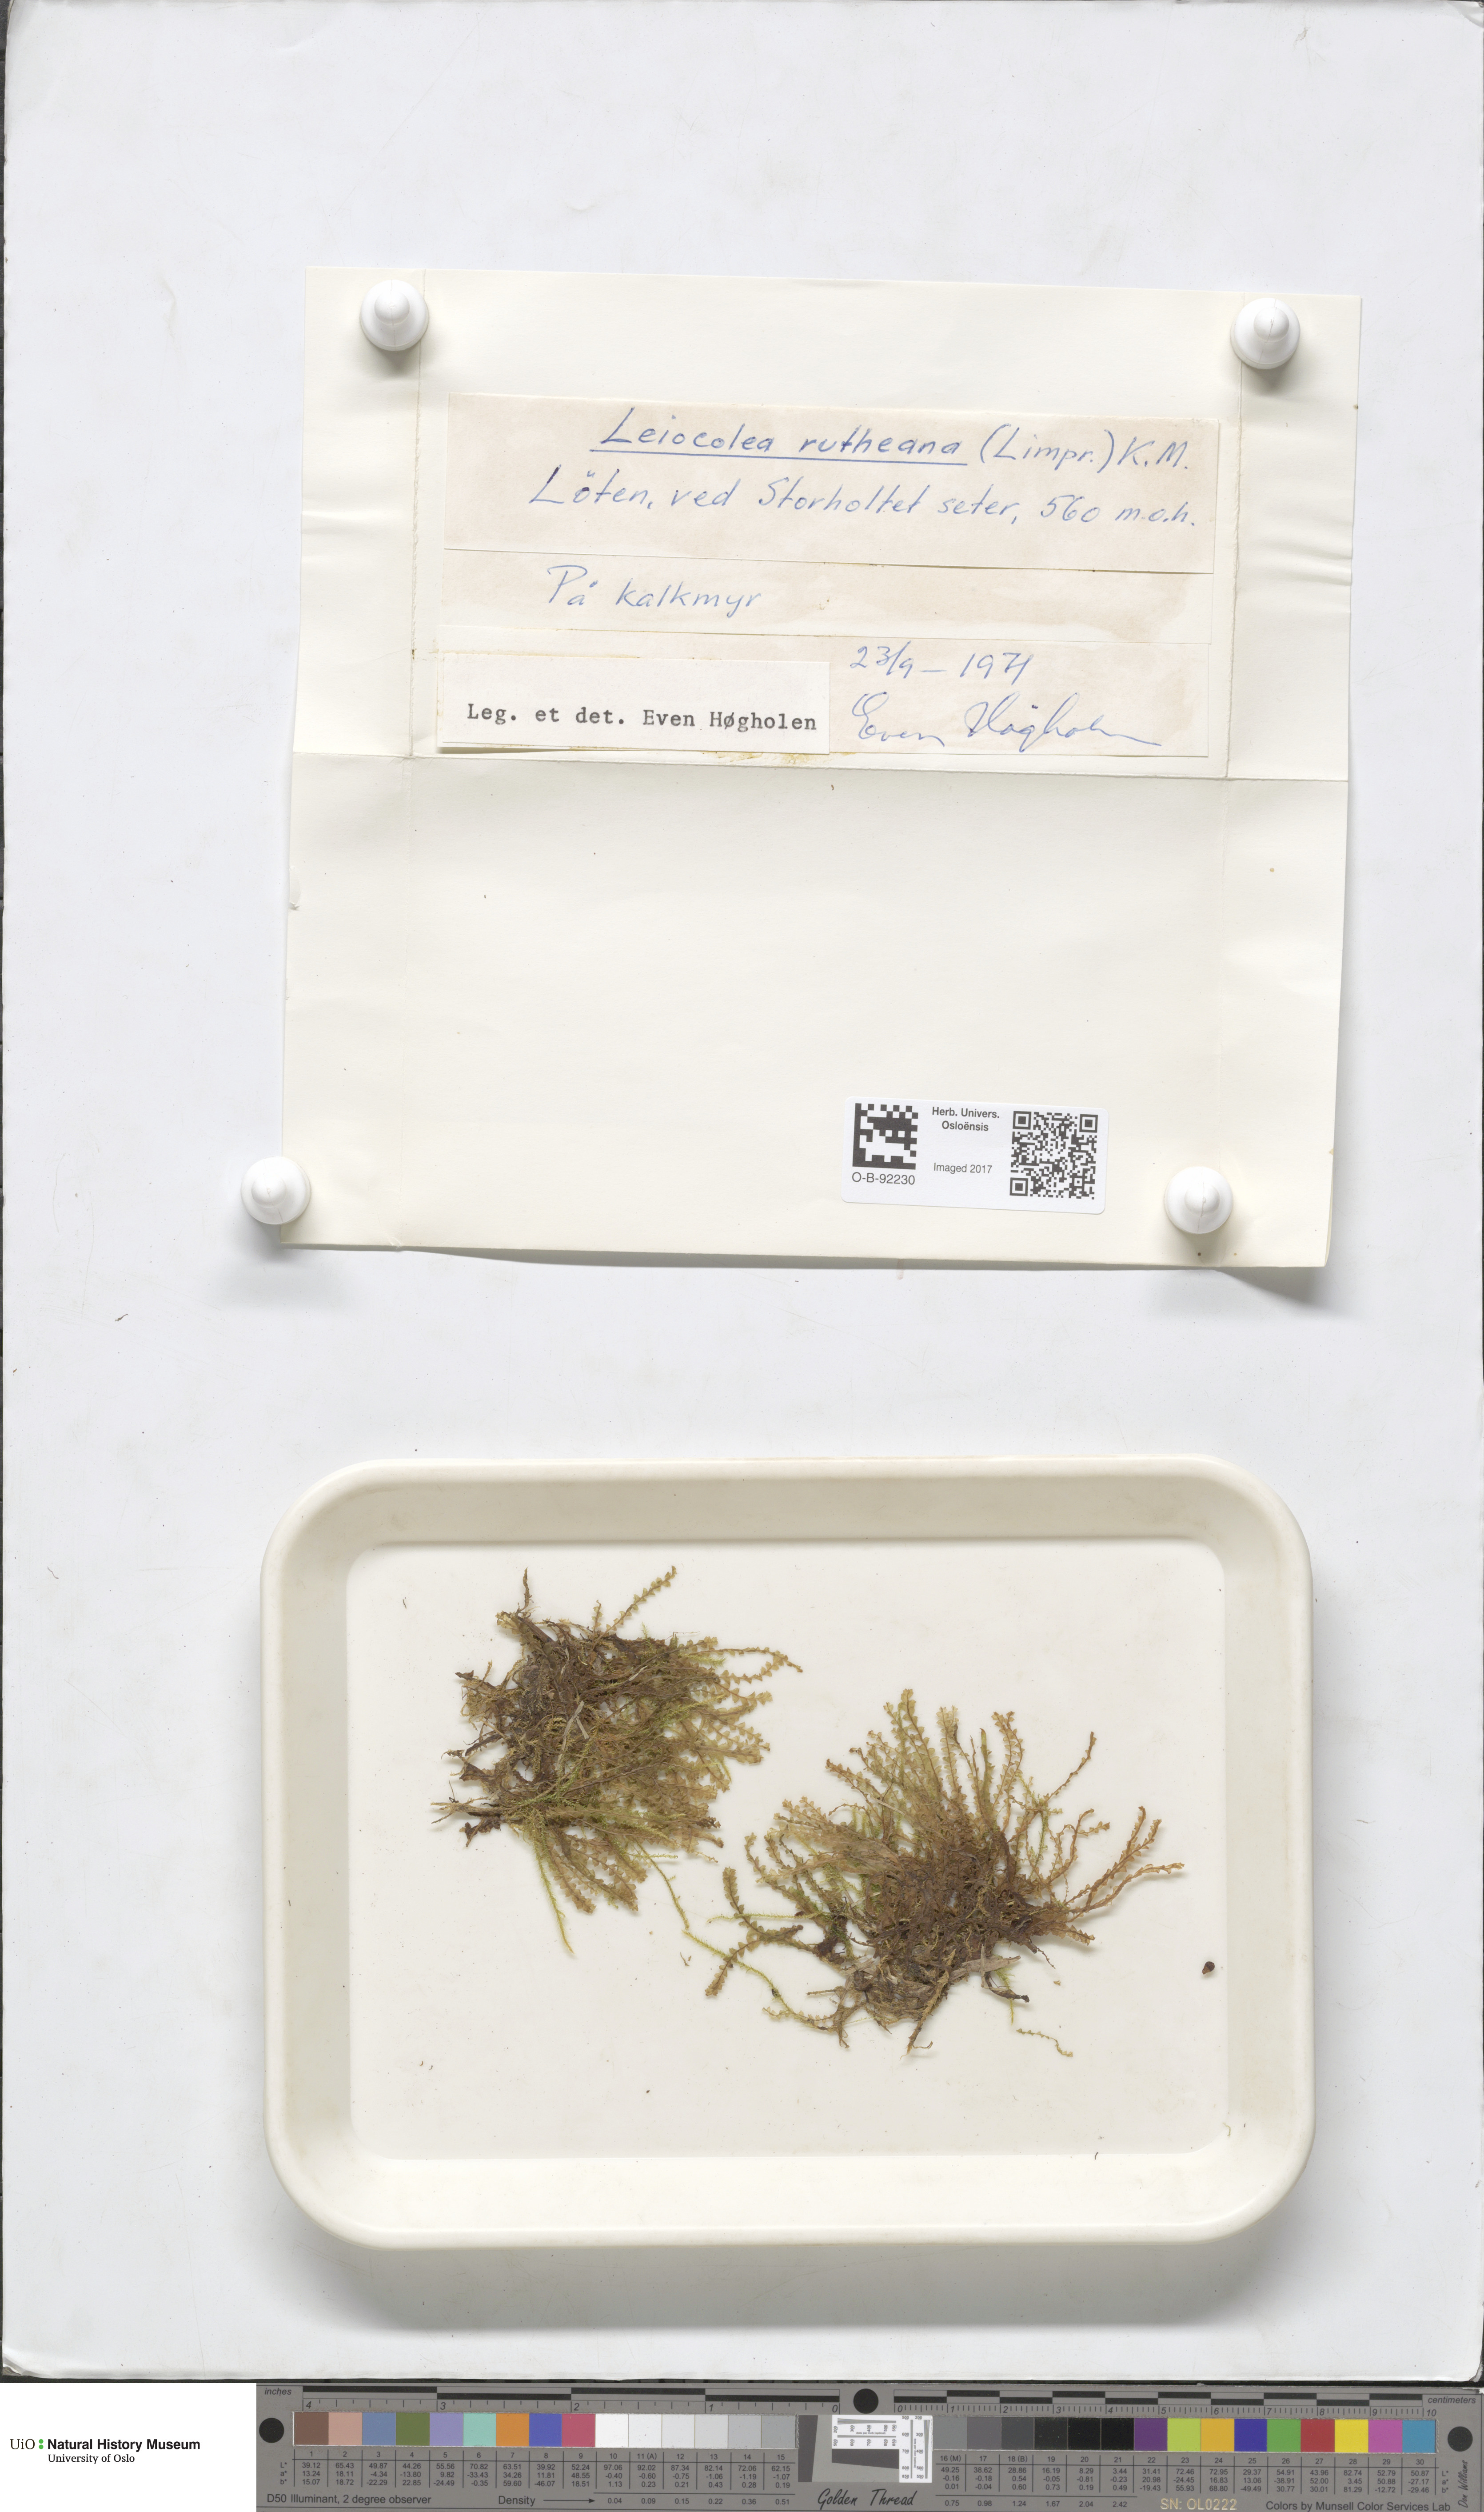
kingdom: Plantae
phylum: Marchantiophyta
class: Jungermanniopsida
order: Jungermanniales
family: Jungermanniaceae
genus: Mesoptychia
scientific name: Mesoptychia rutheana
